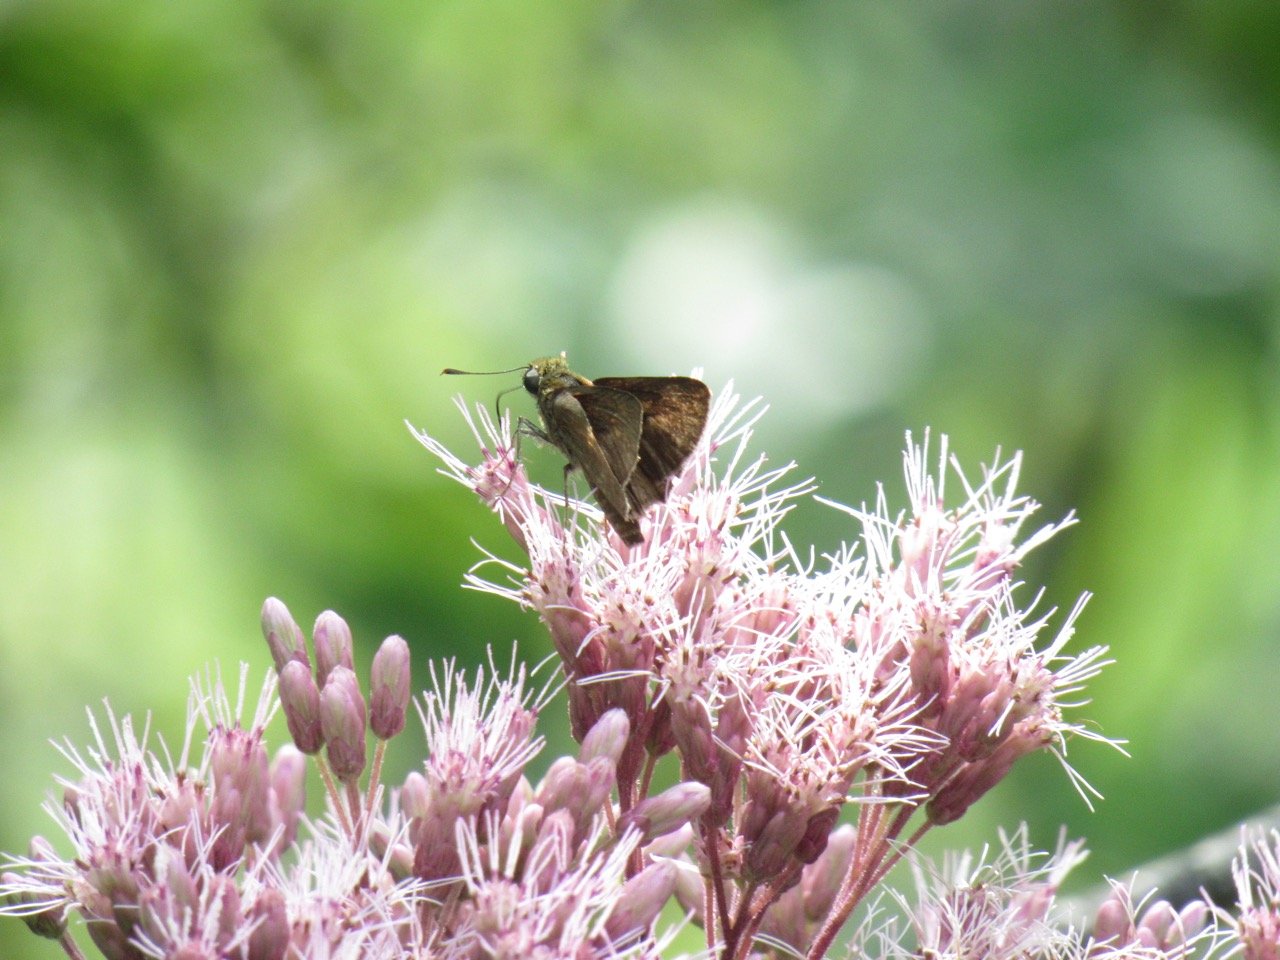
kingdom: Animalia
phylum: Arthropoda
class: Insecta
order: Lepidoptera
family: Hesperiidae
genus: Euphyes
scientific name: Euphyes vestris
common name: Dun Skipper
